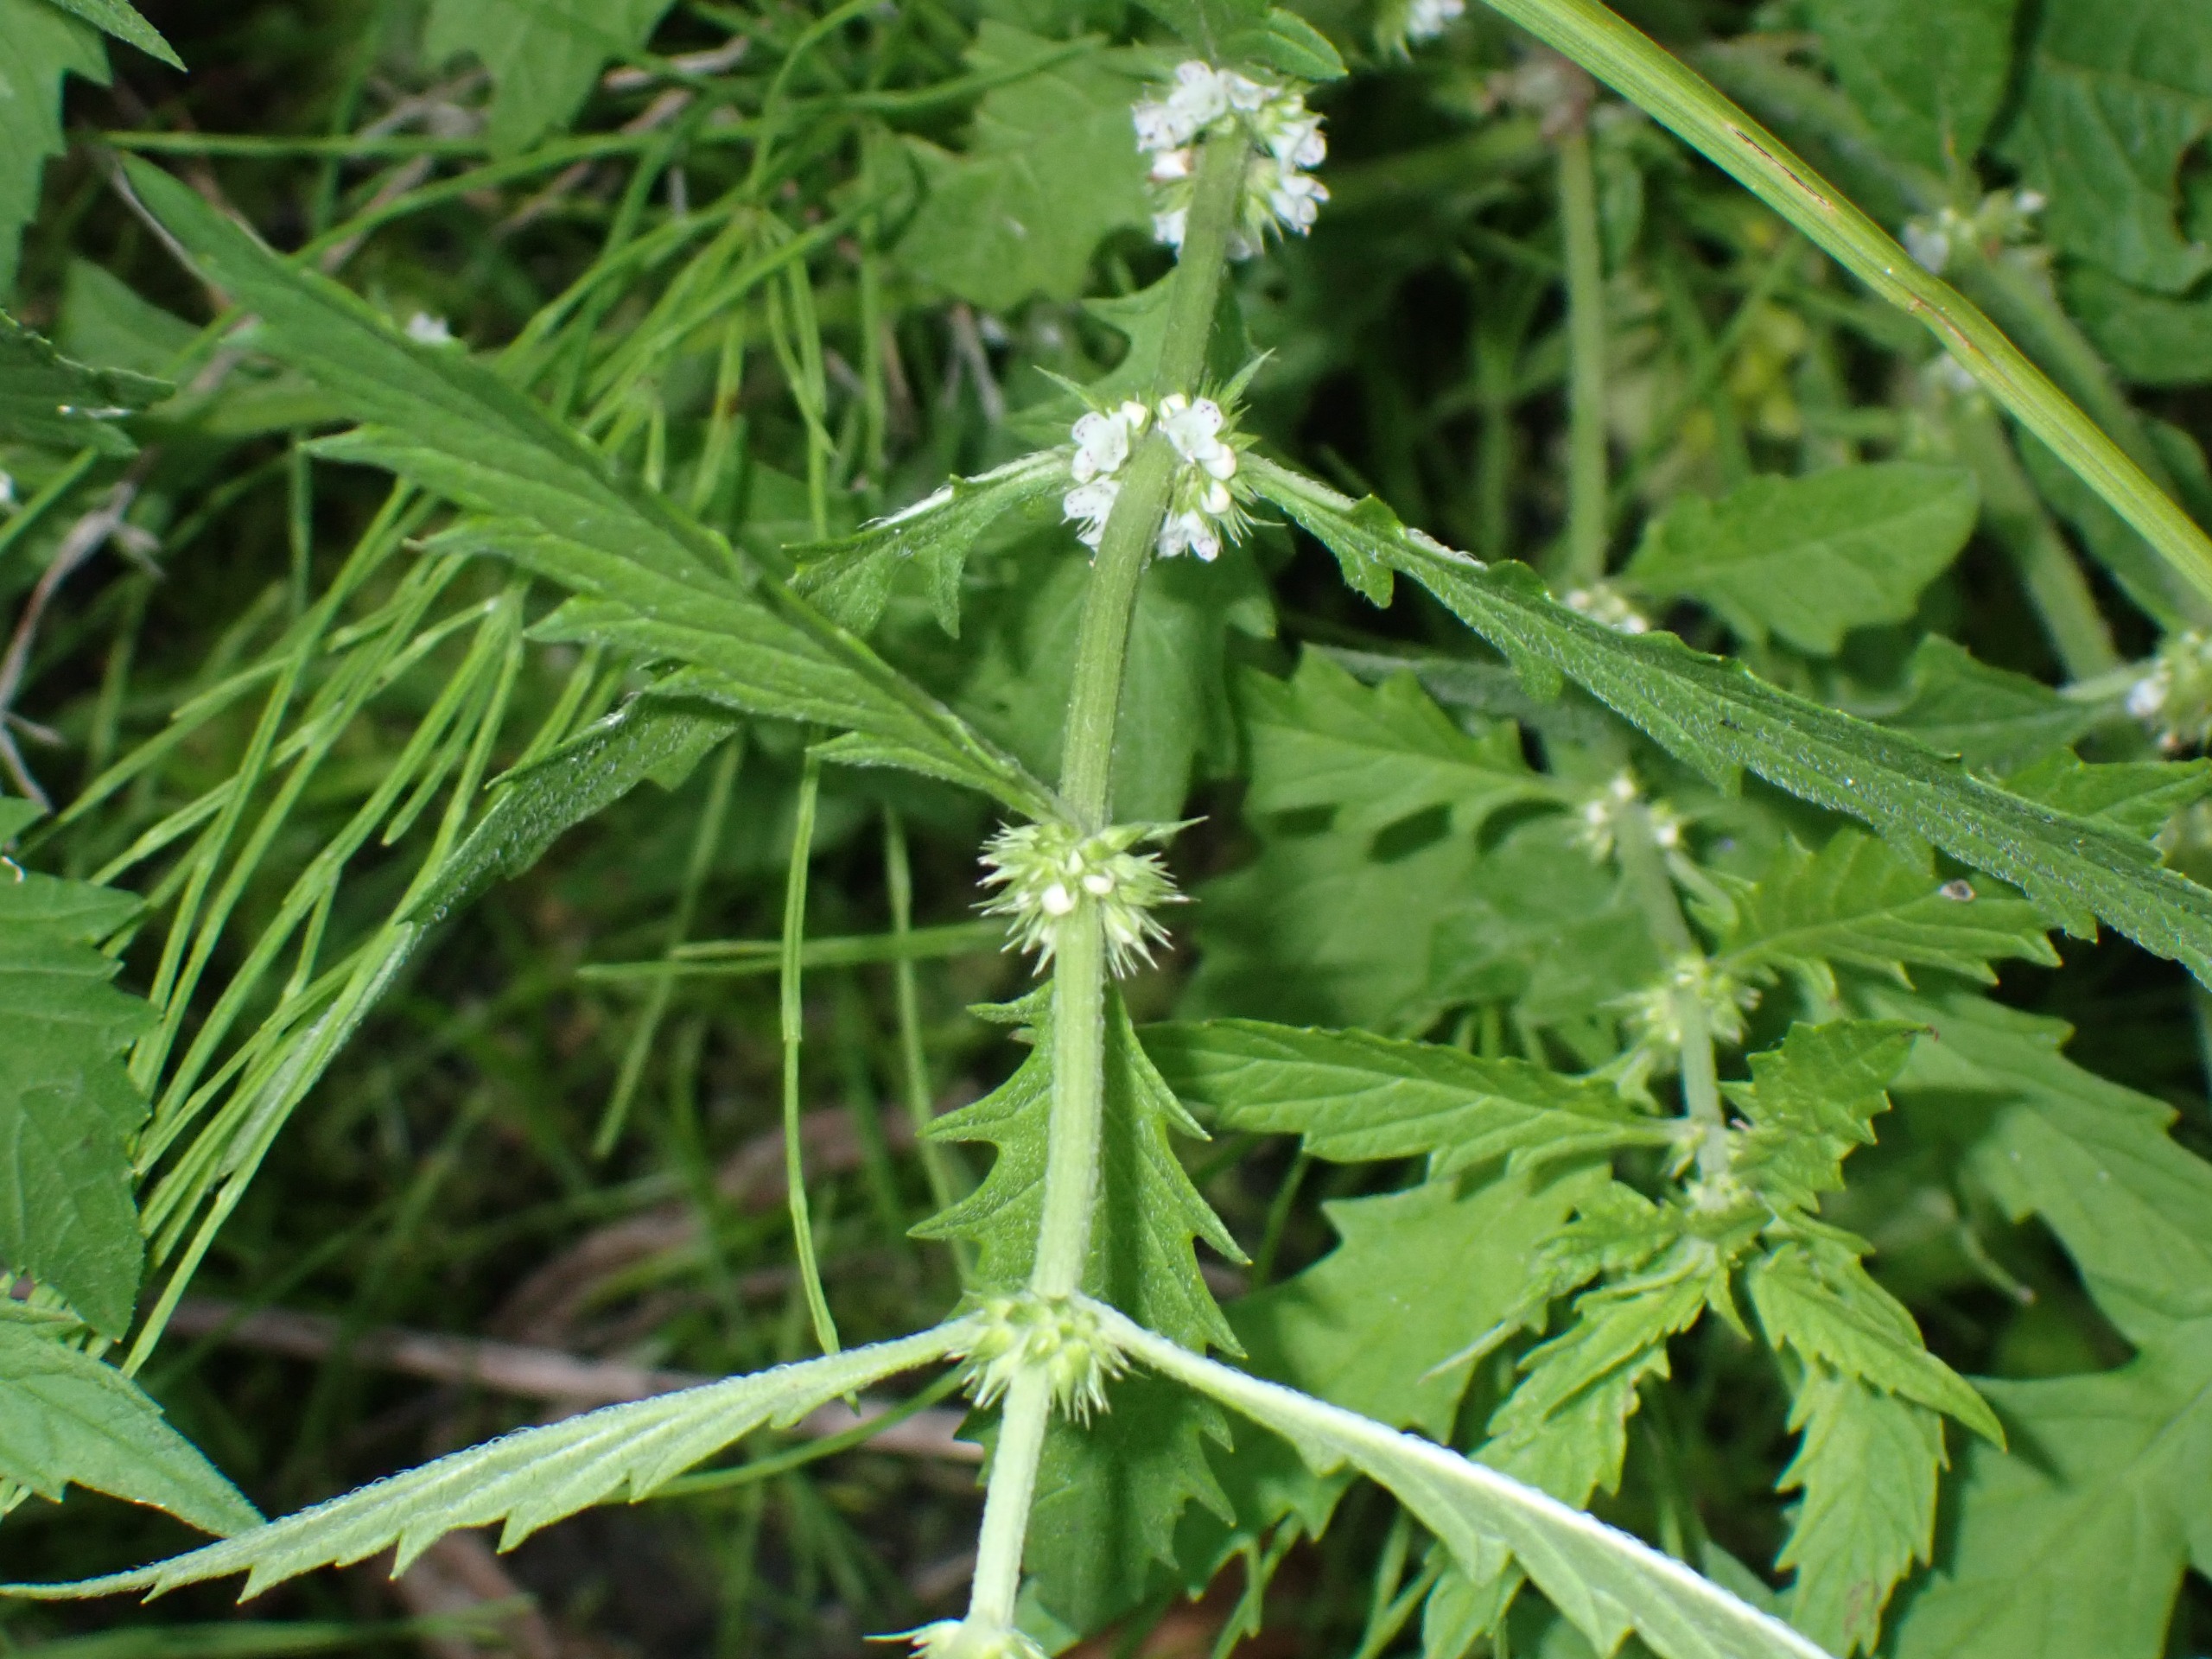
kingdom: Plantae
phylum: Tracheophyta
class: Magnoliopsida
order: Lamiales
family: Lamiaceae
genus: Lycopus
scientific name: Lycopus europaeus
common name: Sværtevæld
